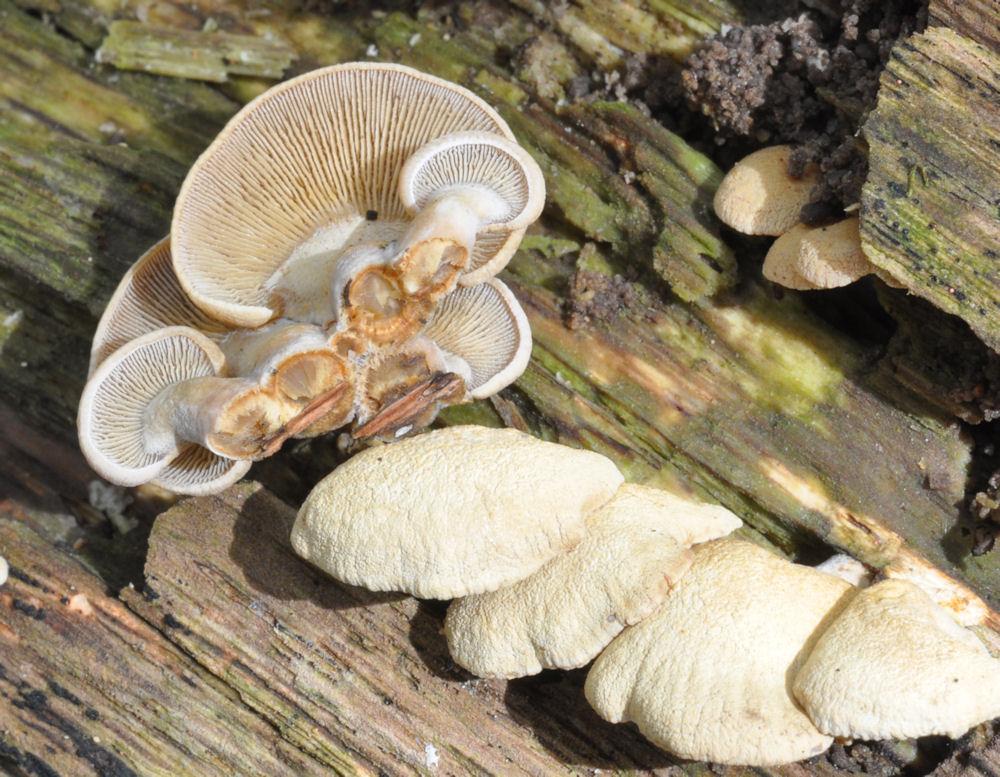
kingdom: Fungi
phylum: Basidiomycota
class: Agaricomycetes
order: Agaricales
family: Mycenaceae
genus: Panellus
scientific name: Panellus stipticus
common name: kliddet epaulethat
